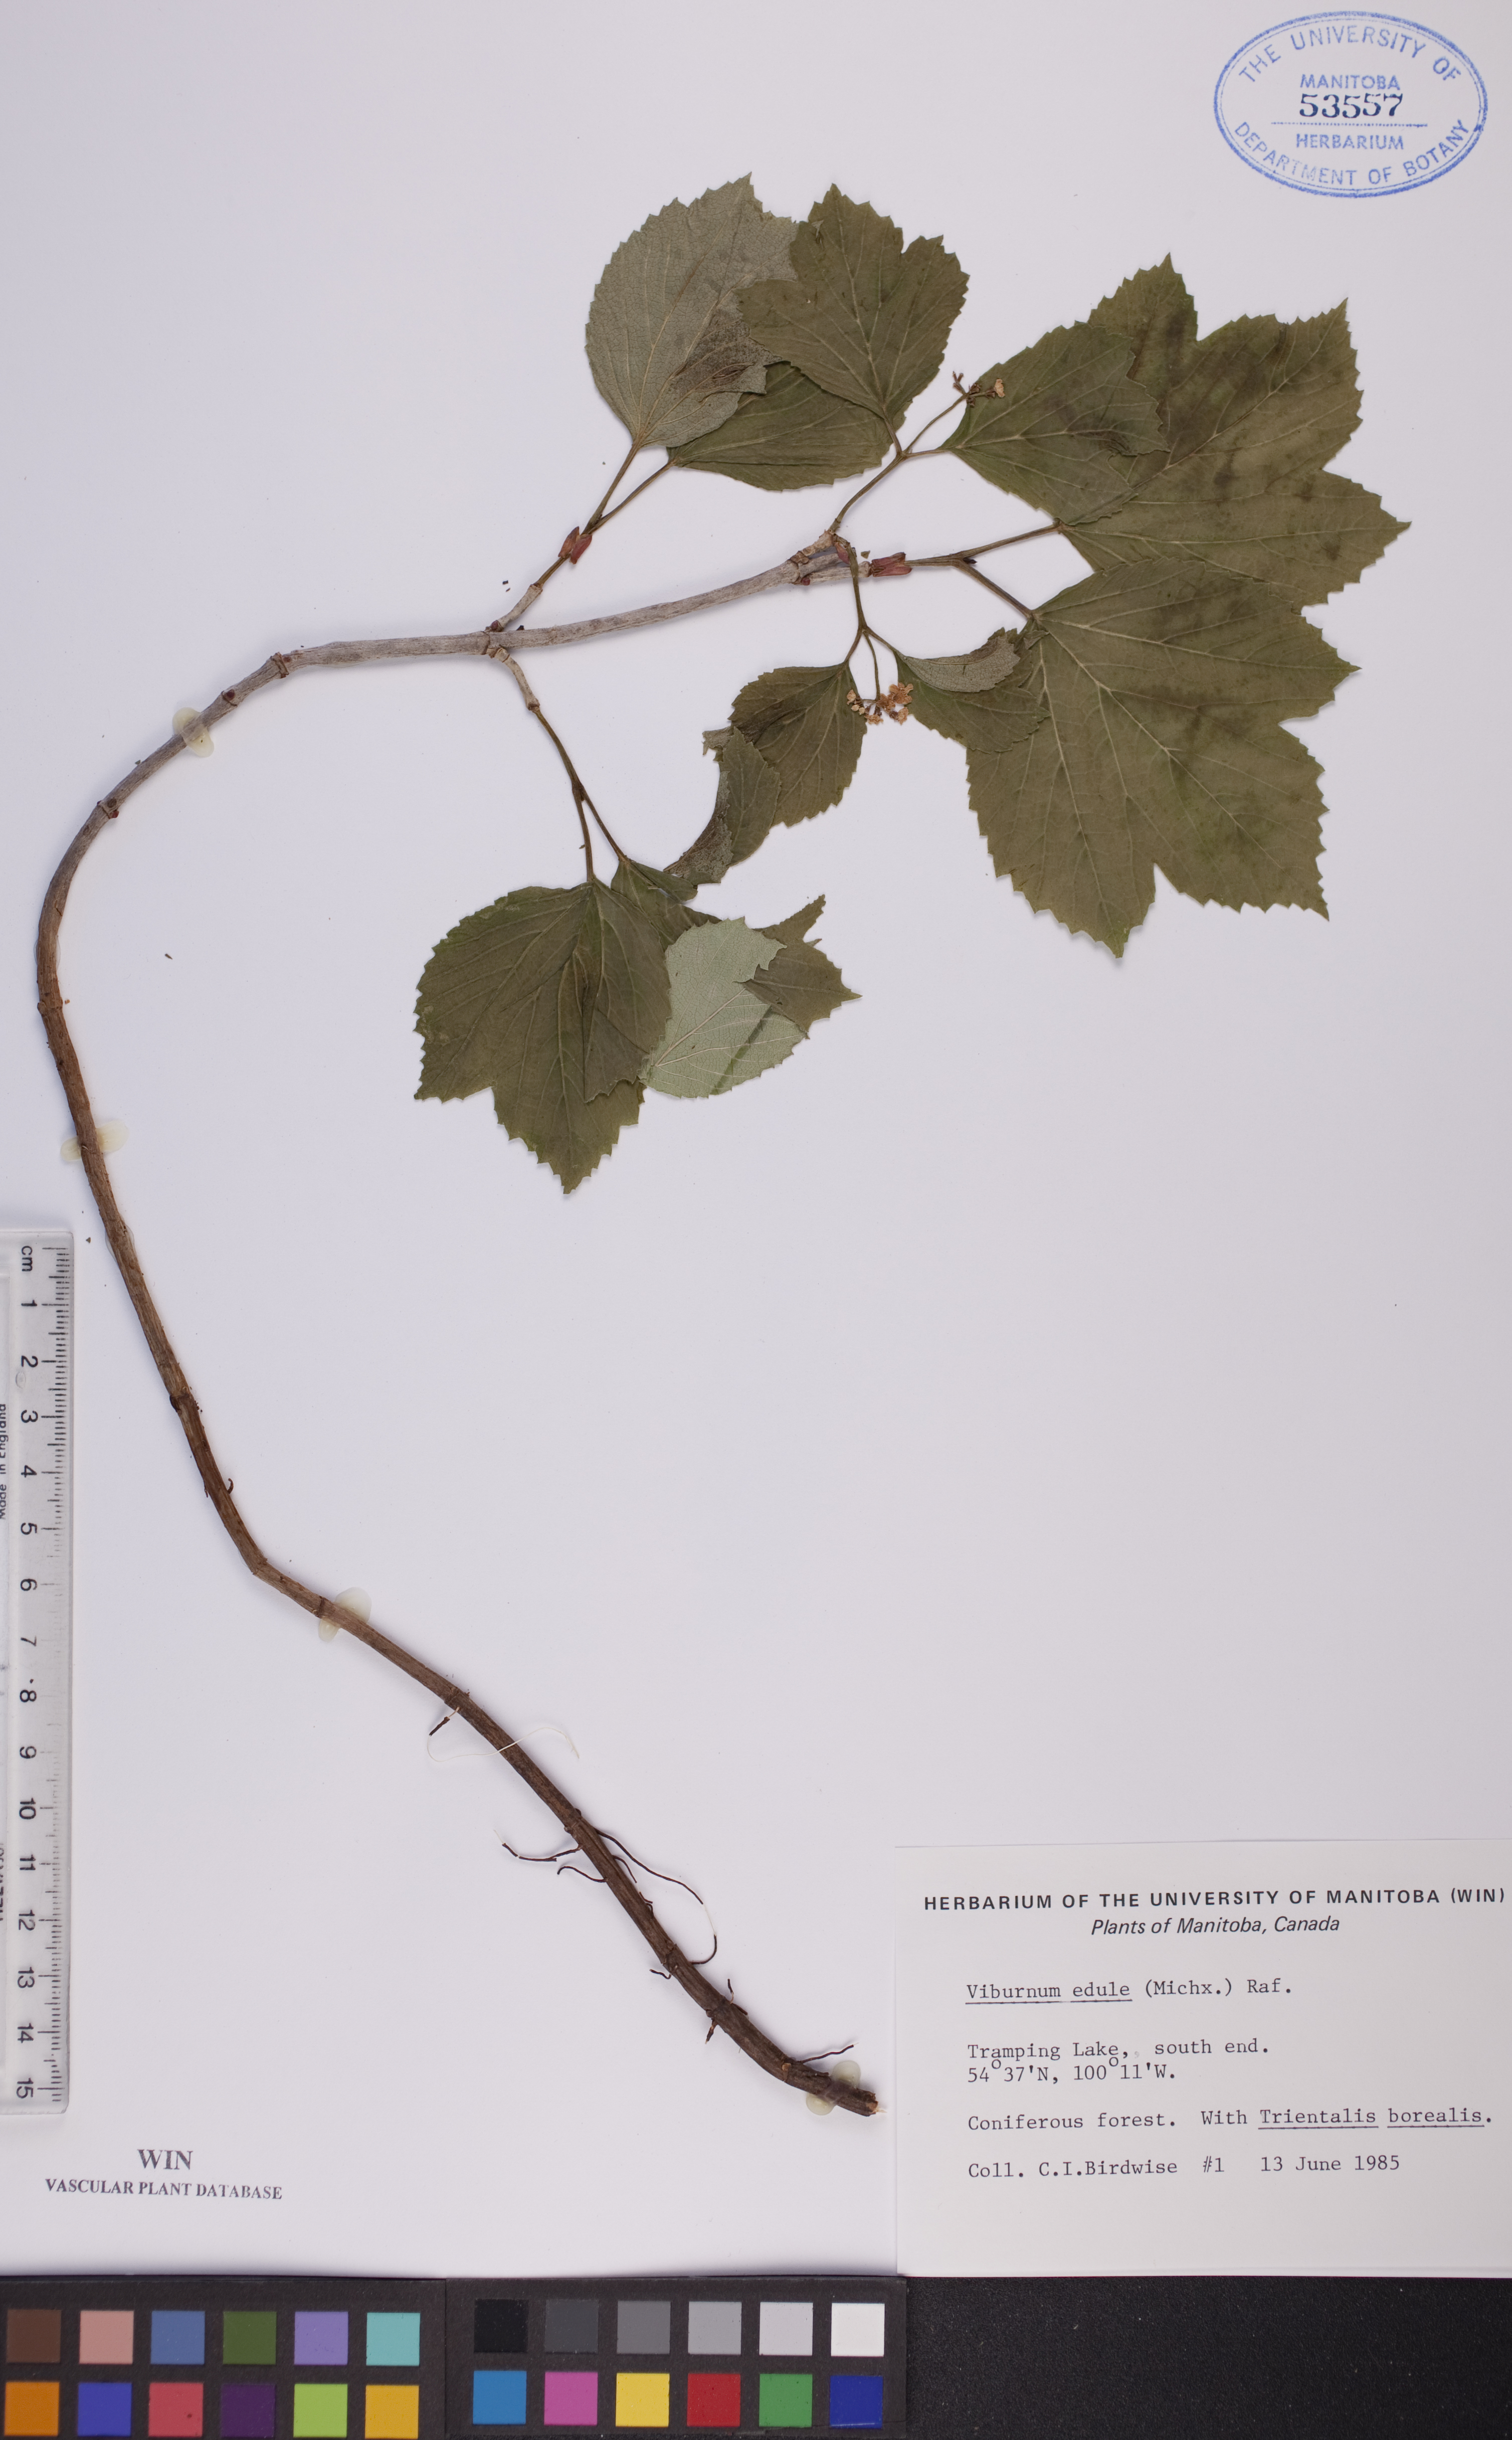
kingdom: Plantae
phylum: Tracheophyta
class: Magnoliopsida
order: Dipsacales
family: Viburnaceae
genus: Viburnum
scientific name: Viburnum edule
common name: Mooseberry
